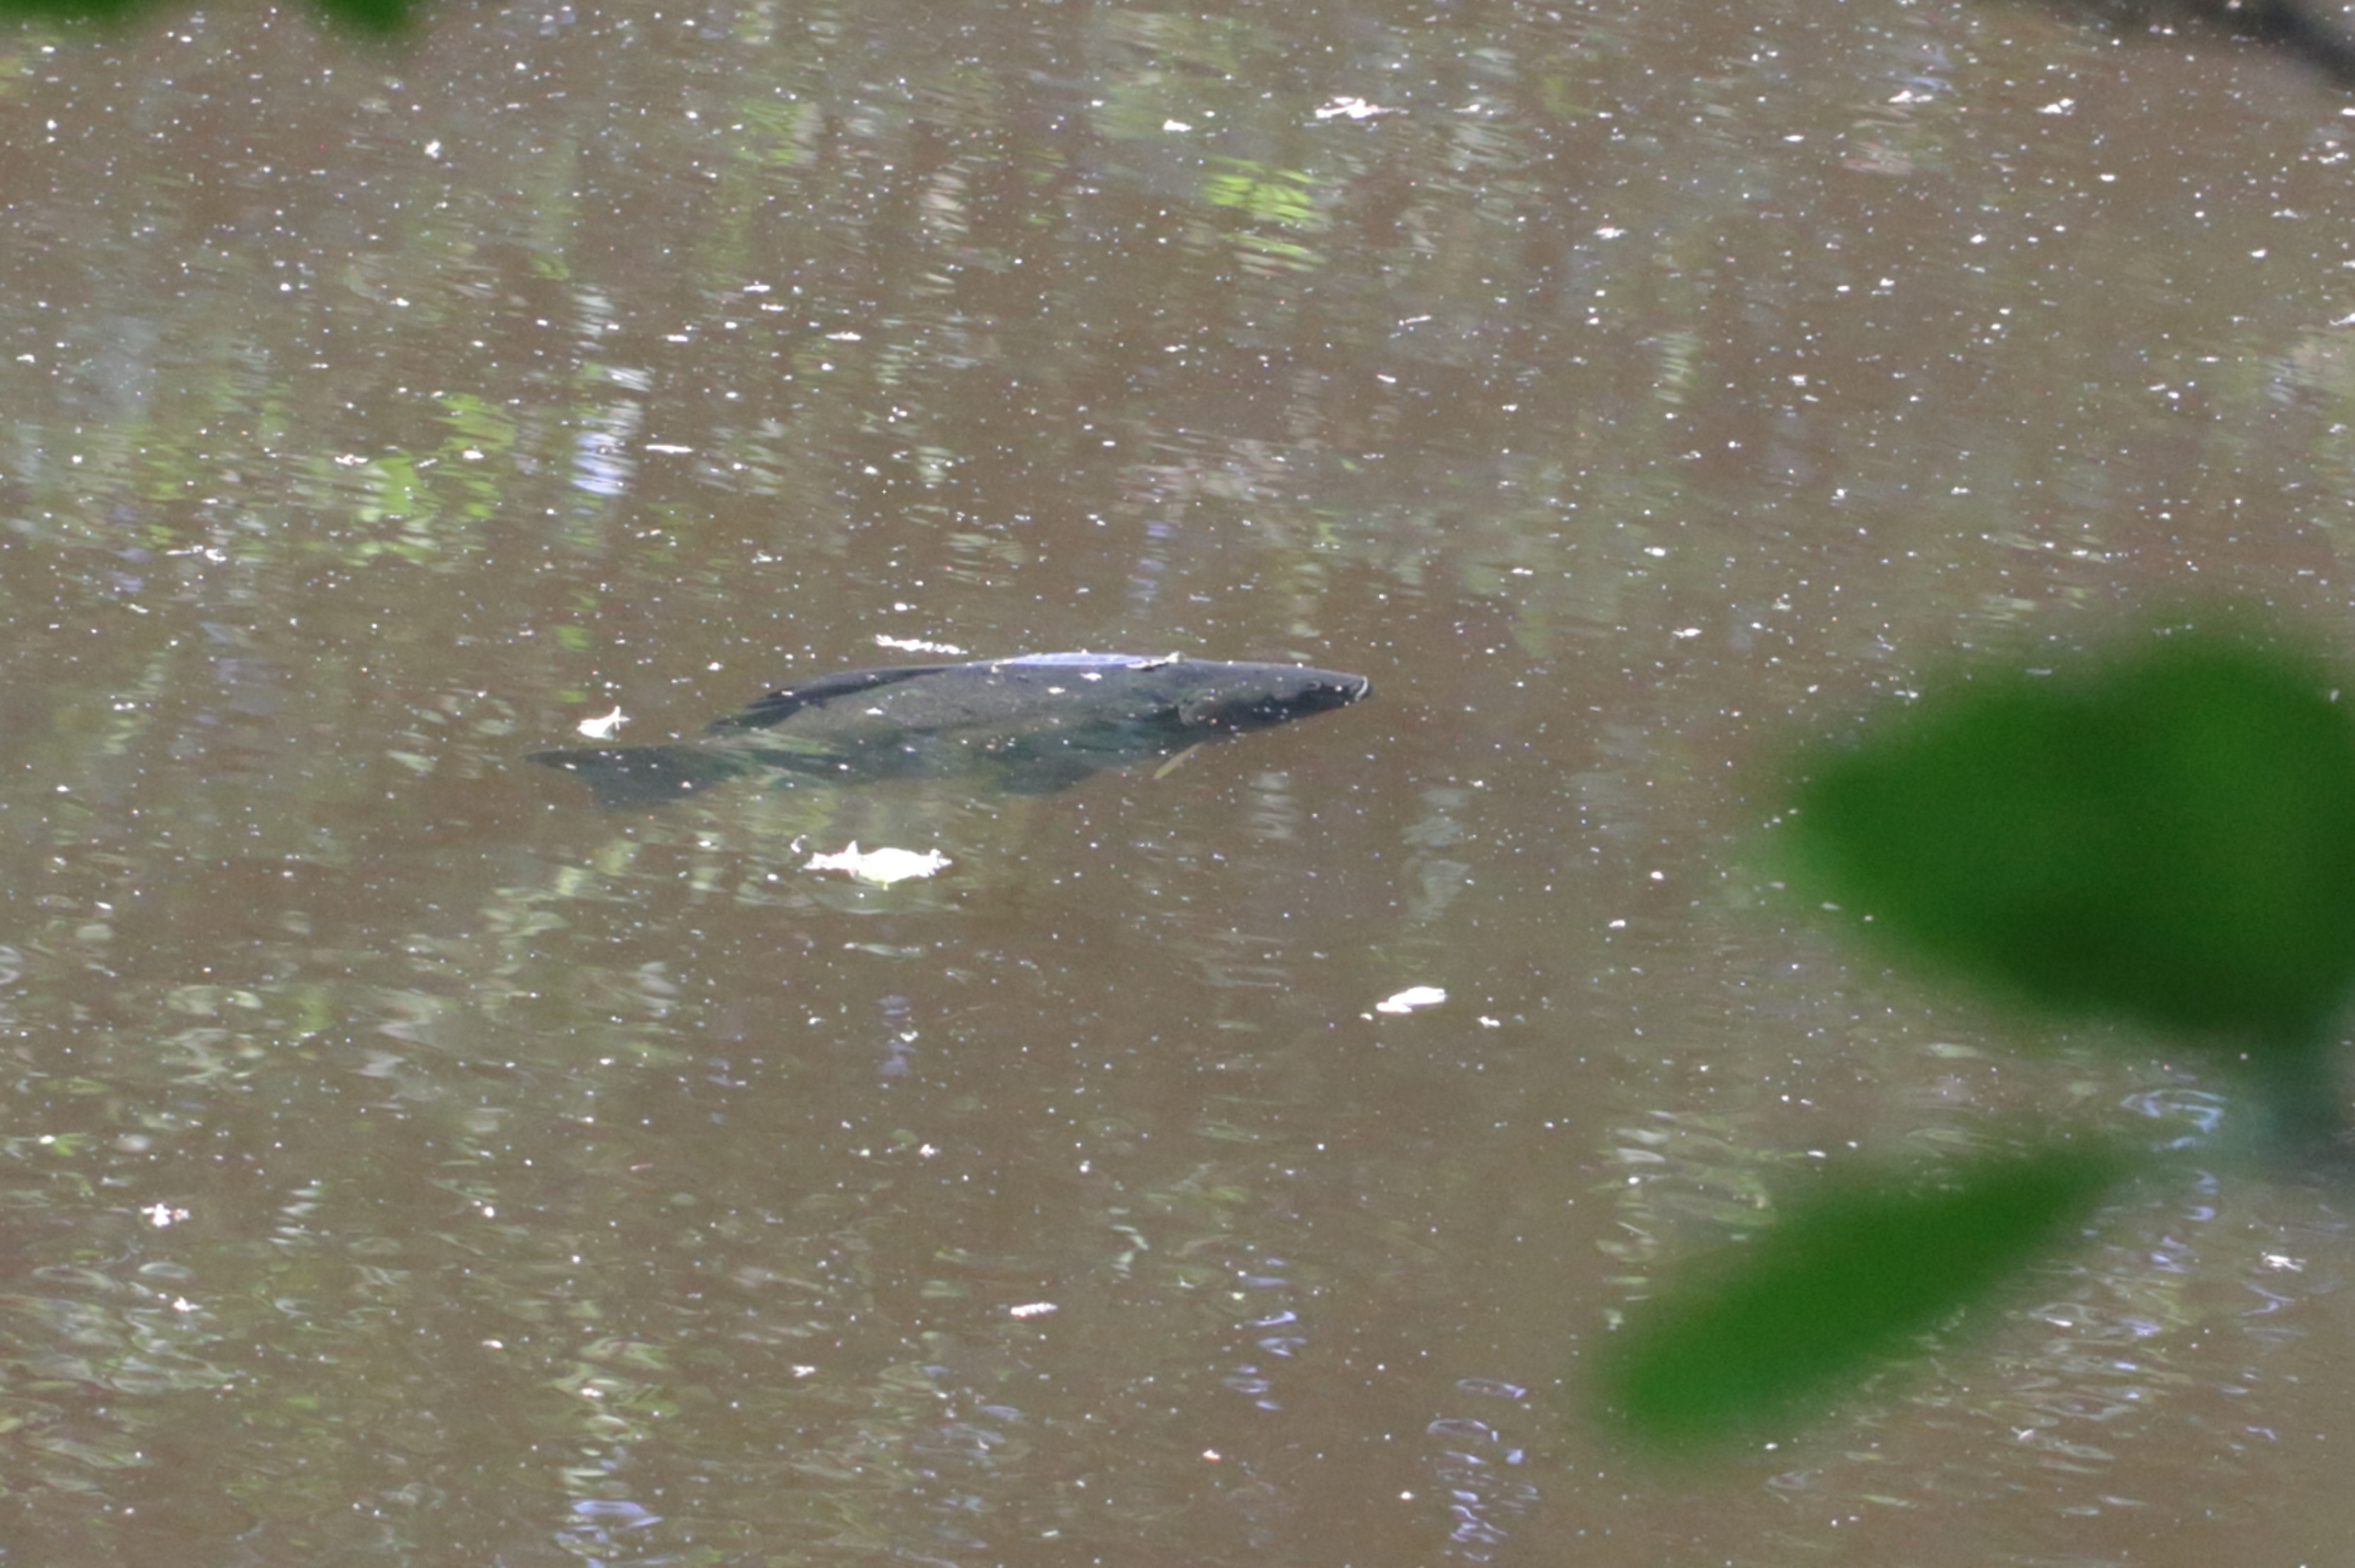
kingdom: Animalia
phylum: Chordata
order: Cypriniformes
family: Cyprinidae
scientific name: Cyprinidae
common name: Karpefamilien
